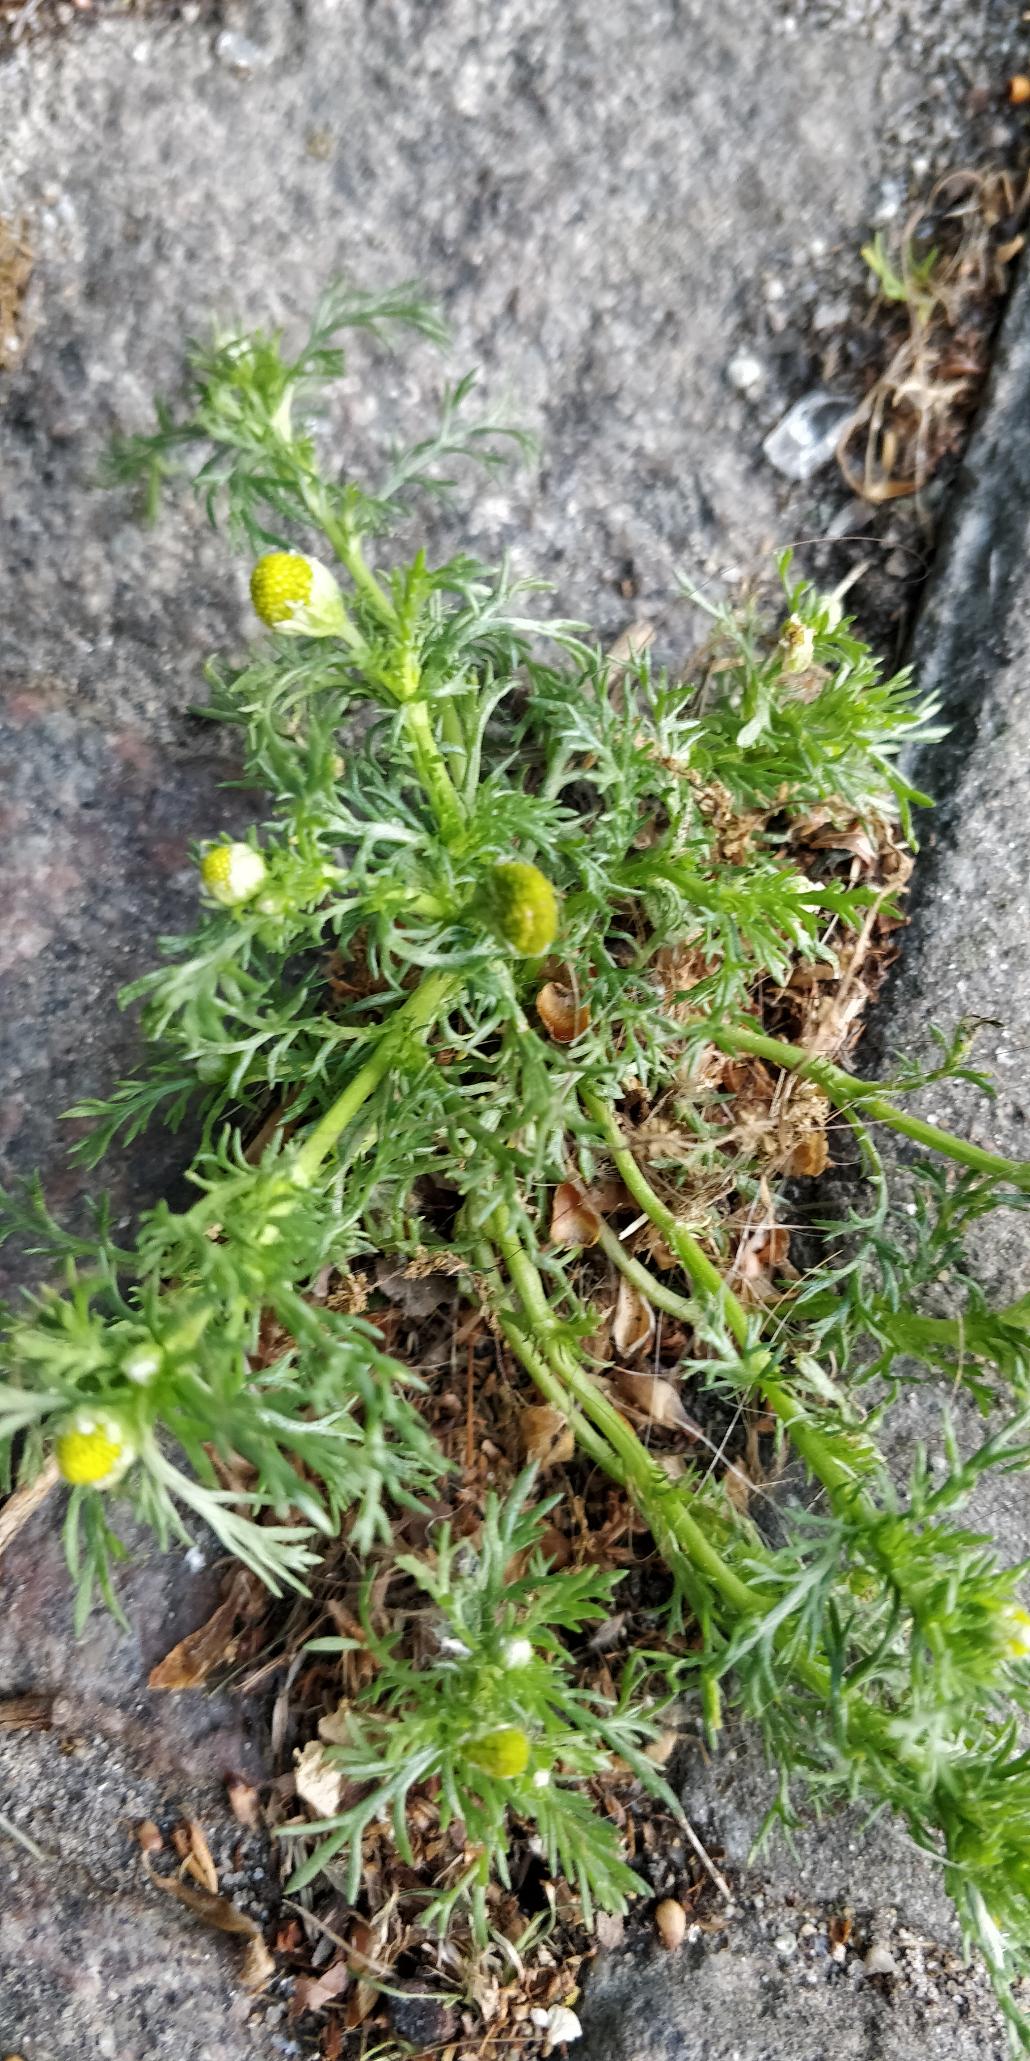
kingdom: Plantae
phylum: Tracheophyta
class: Magnoliopsida
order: Asterales
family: Asteraceae
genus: Matricaria
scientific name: Matricaria discoidea
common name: Skive-kamille
